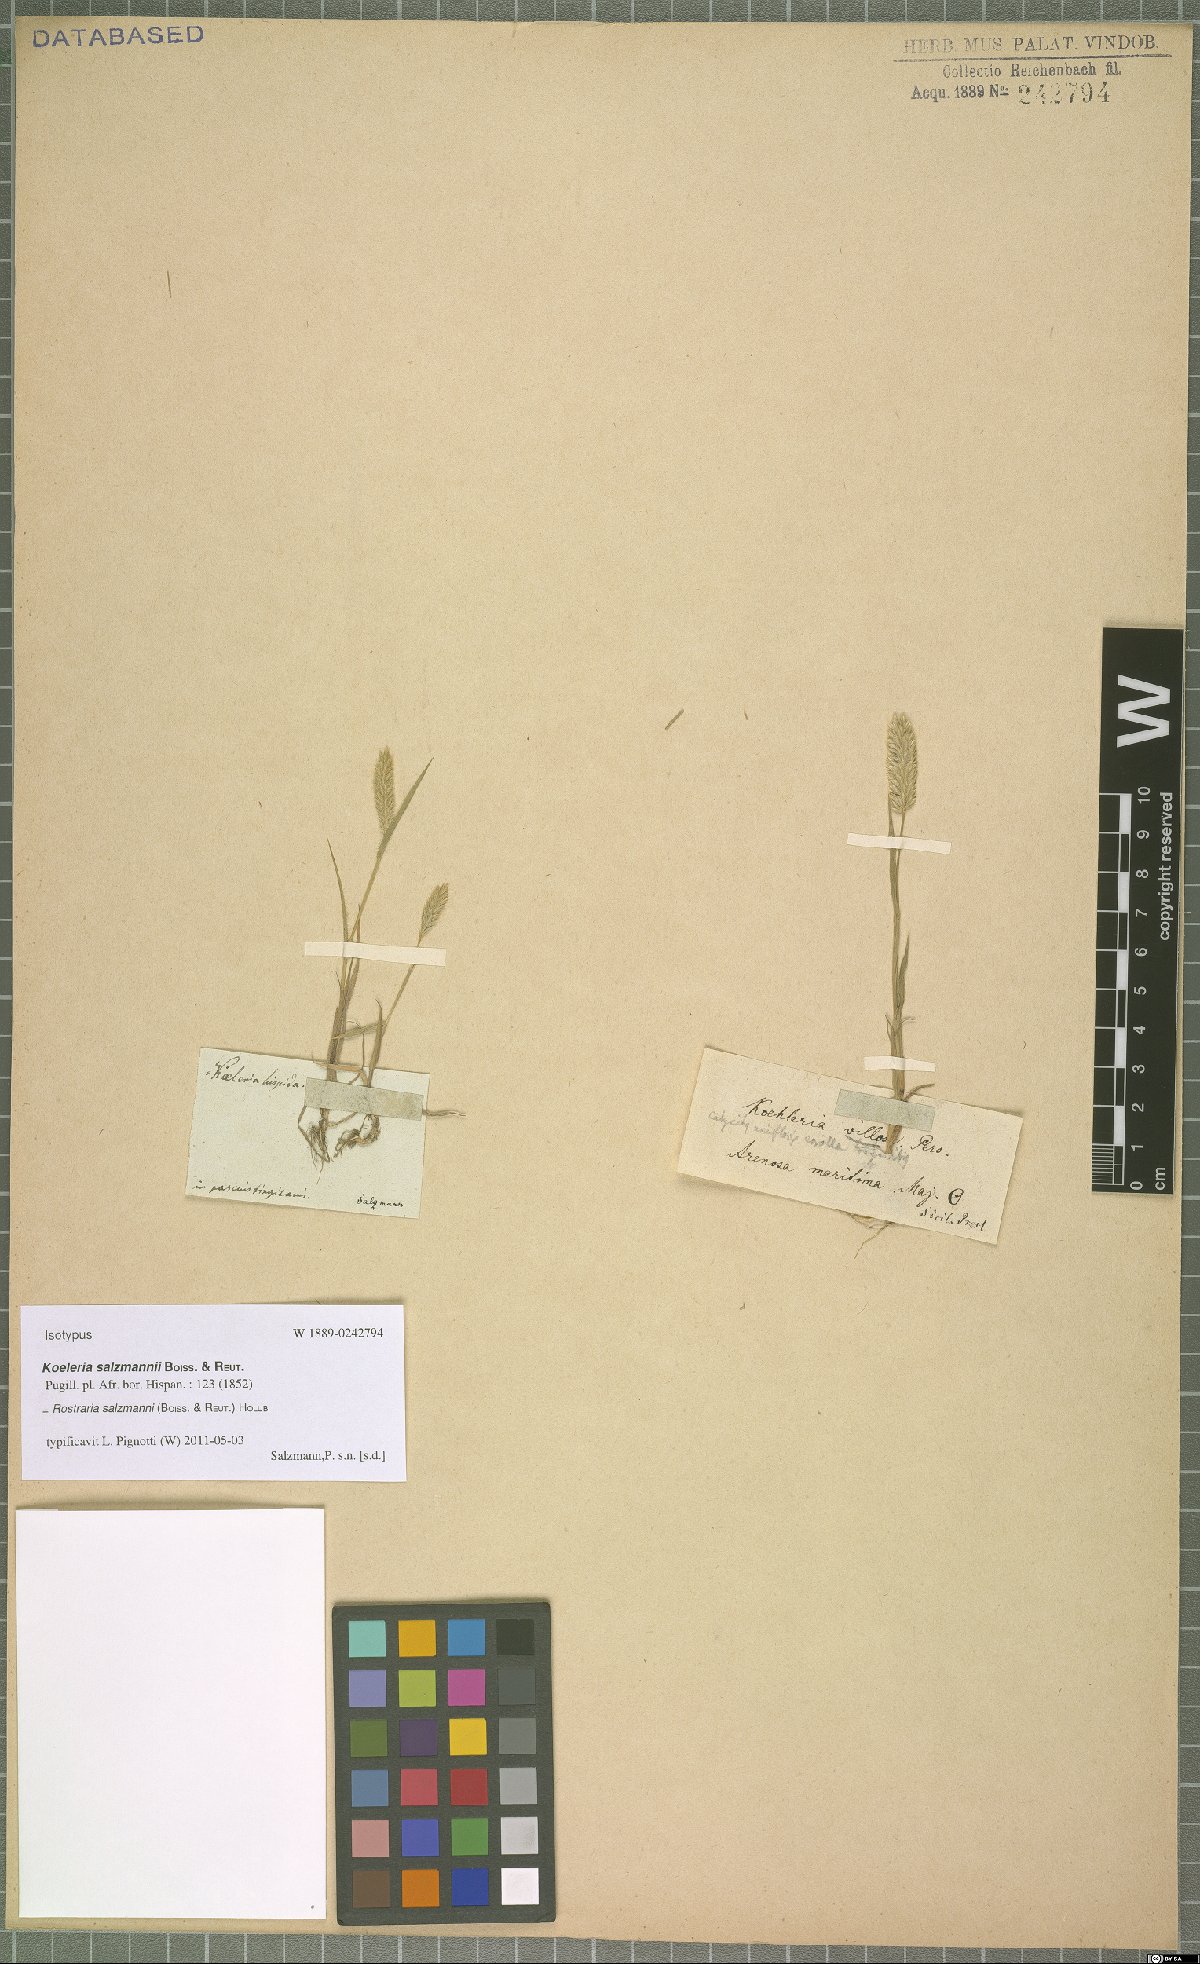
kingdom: Plantae
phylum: Tracheophyta
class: Liliopsida
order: Poales
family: Poaceae
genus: Rostraria
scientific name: Rostraria salzmannii
